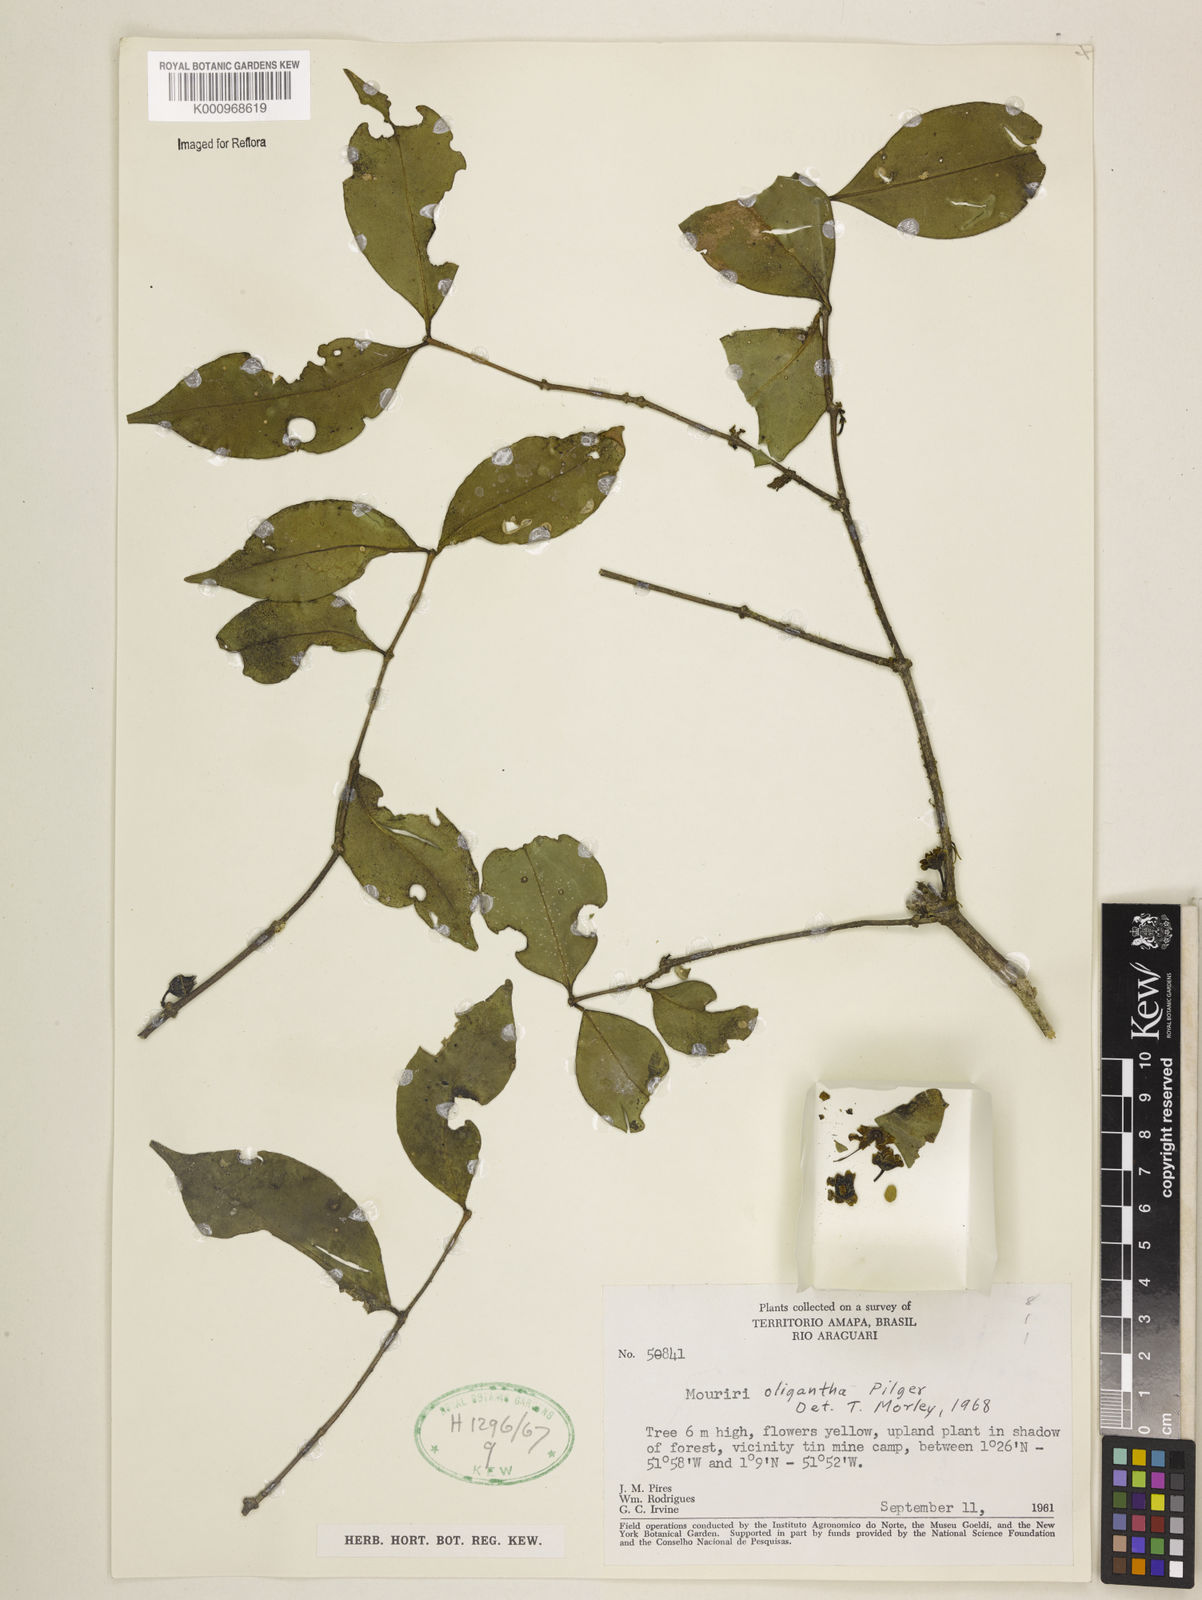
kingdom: Plantae
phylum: Tracheophyta
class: Magnoliopsida
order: Myrtales
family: Melastomataceae
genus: Mouriri
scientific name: Mouriri oligantha
